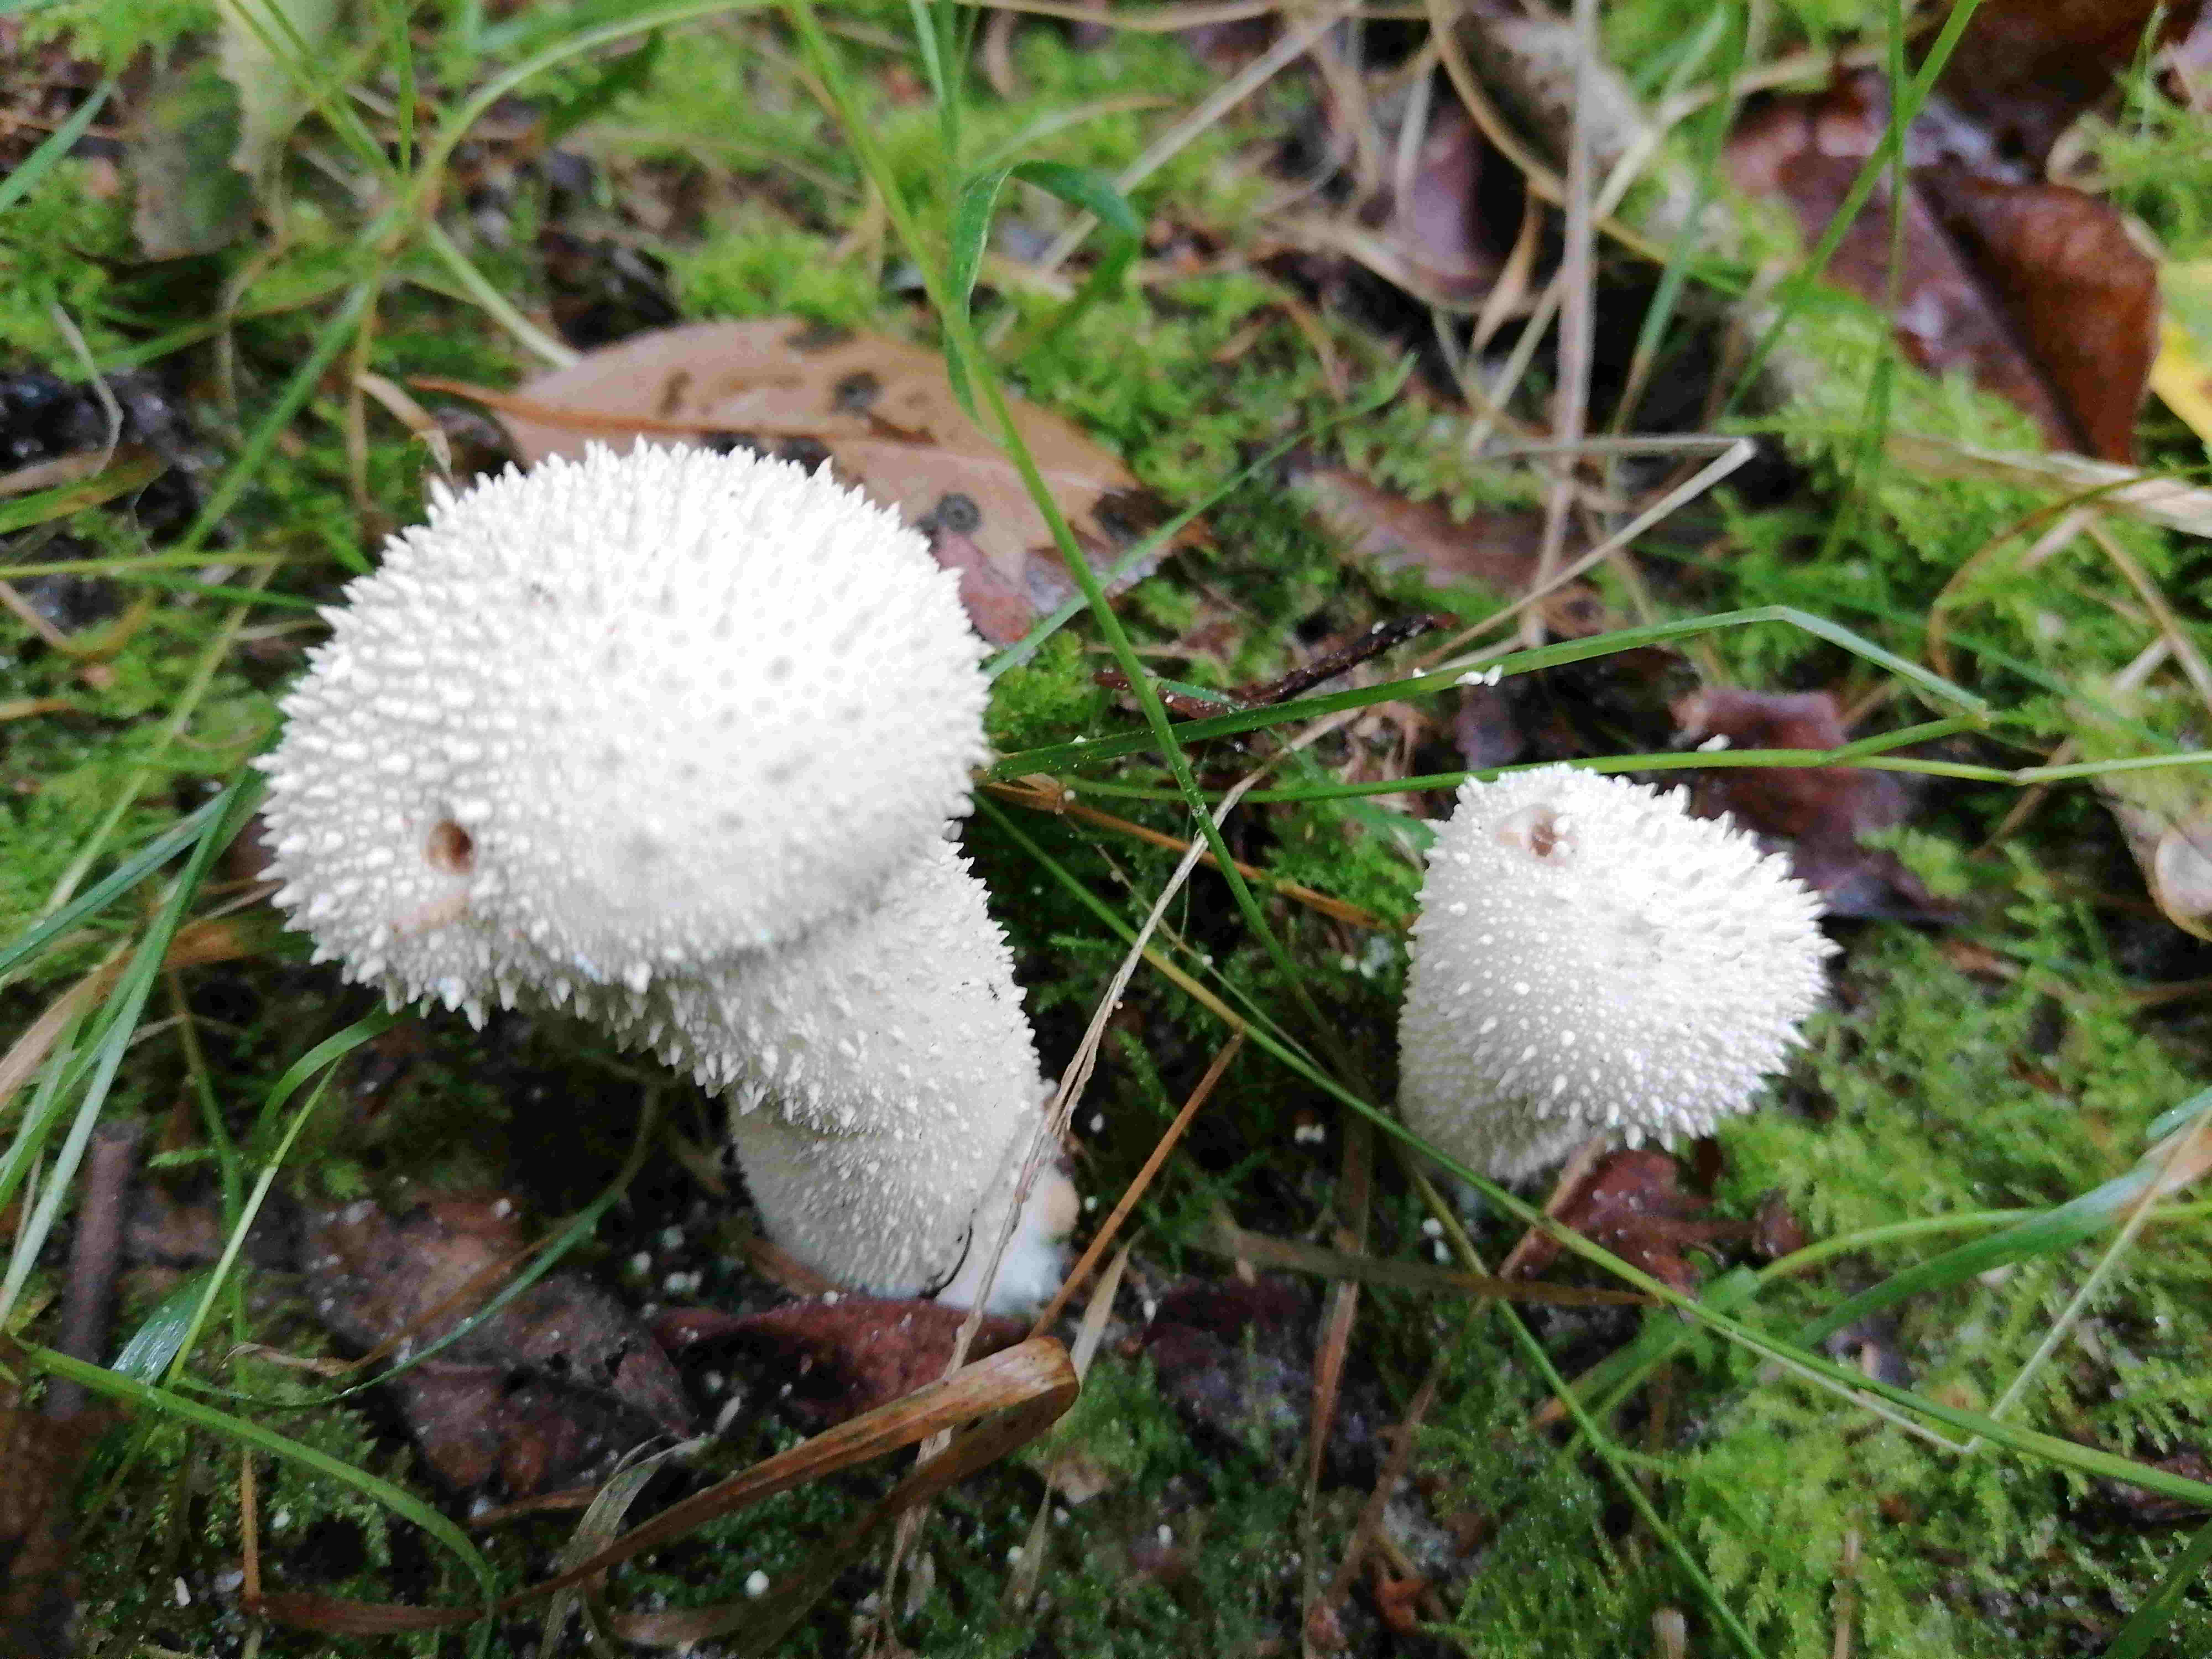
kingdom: Fungi
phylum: Basidiomycota
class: Agaricomycetes
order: Agaricales
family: Lycoperdaceae
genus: Lycoperdon
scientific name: Lycoperdon perlatum
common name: krystal-støvbold
